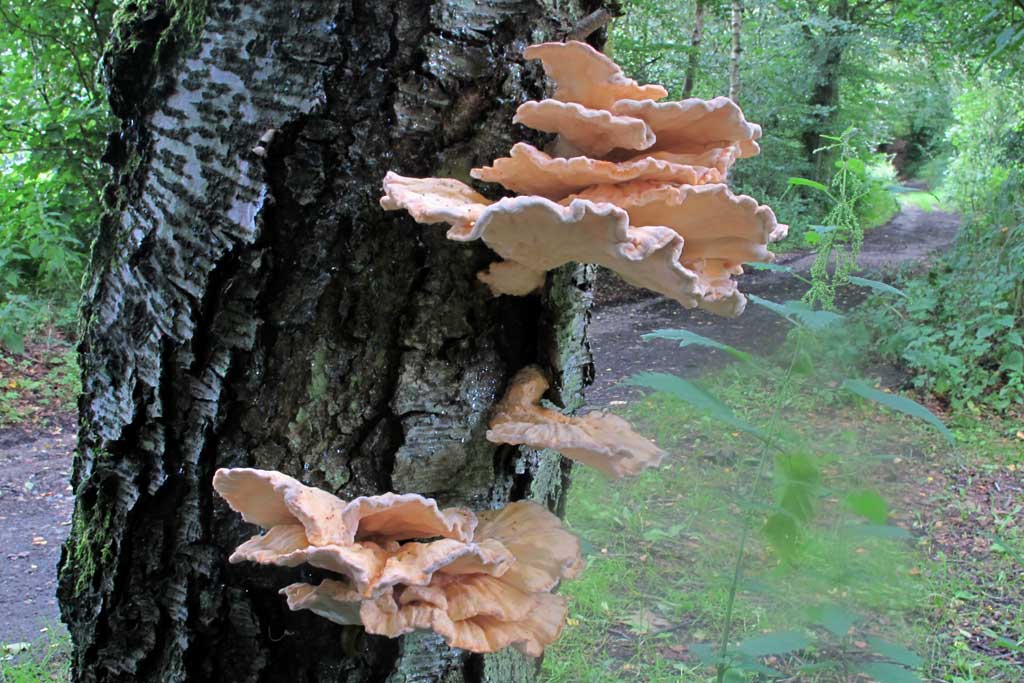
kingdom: Fungi
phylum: Basidiomycota
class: Agaricomycetes
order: Polyporales
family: Laetiporaceae
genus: Laetiporus
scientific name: Laetiporus sulphureus
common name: svovlporesvamp
